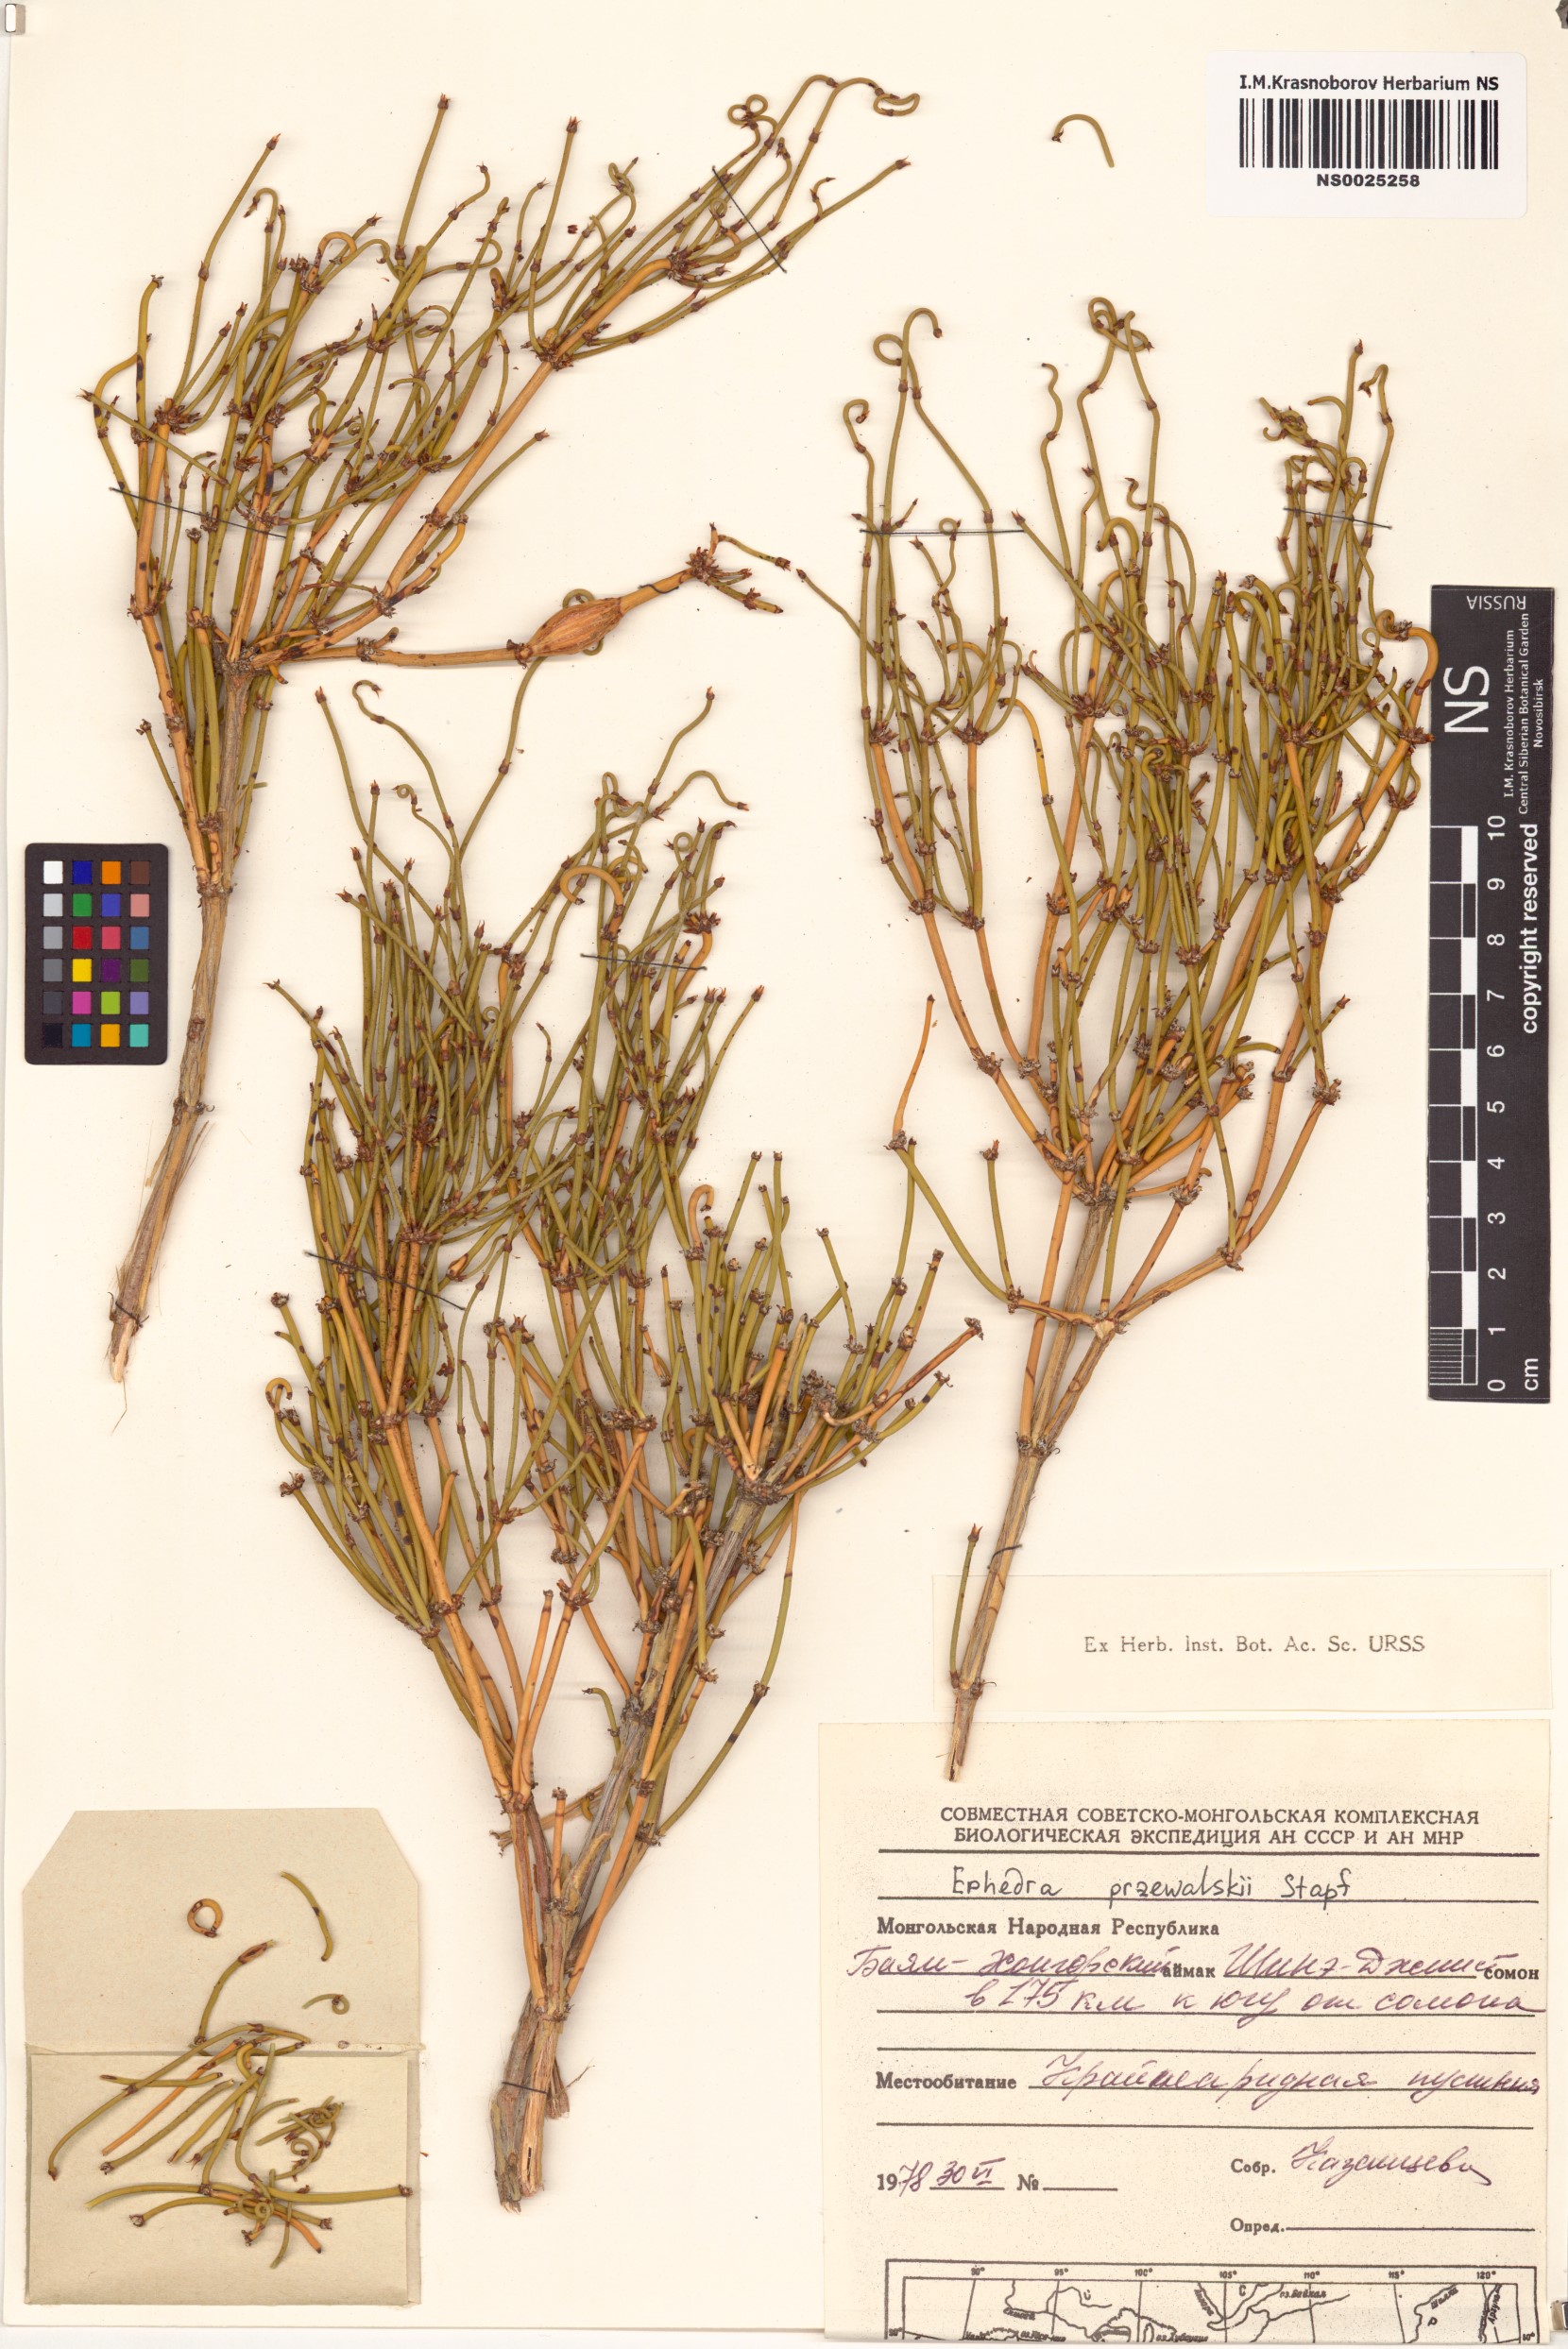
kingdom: Plantae
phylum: Tracheophyta
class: Gnetopsida
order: Ephedrales
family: Ephedraceae
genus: Ephedra
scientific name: Ephedra przewalskii
